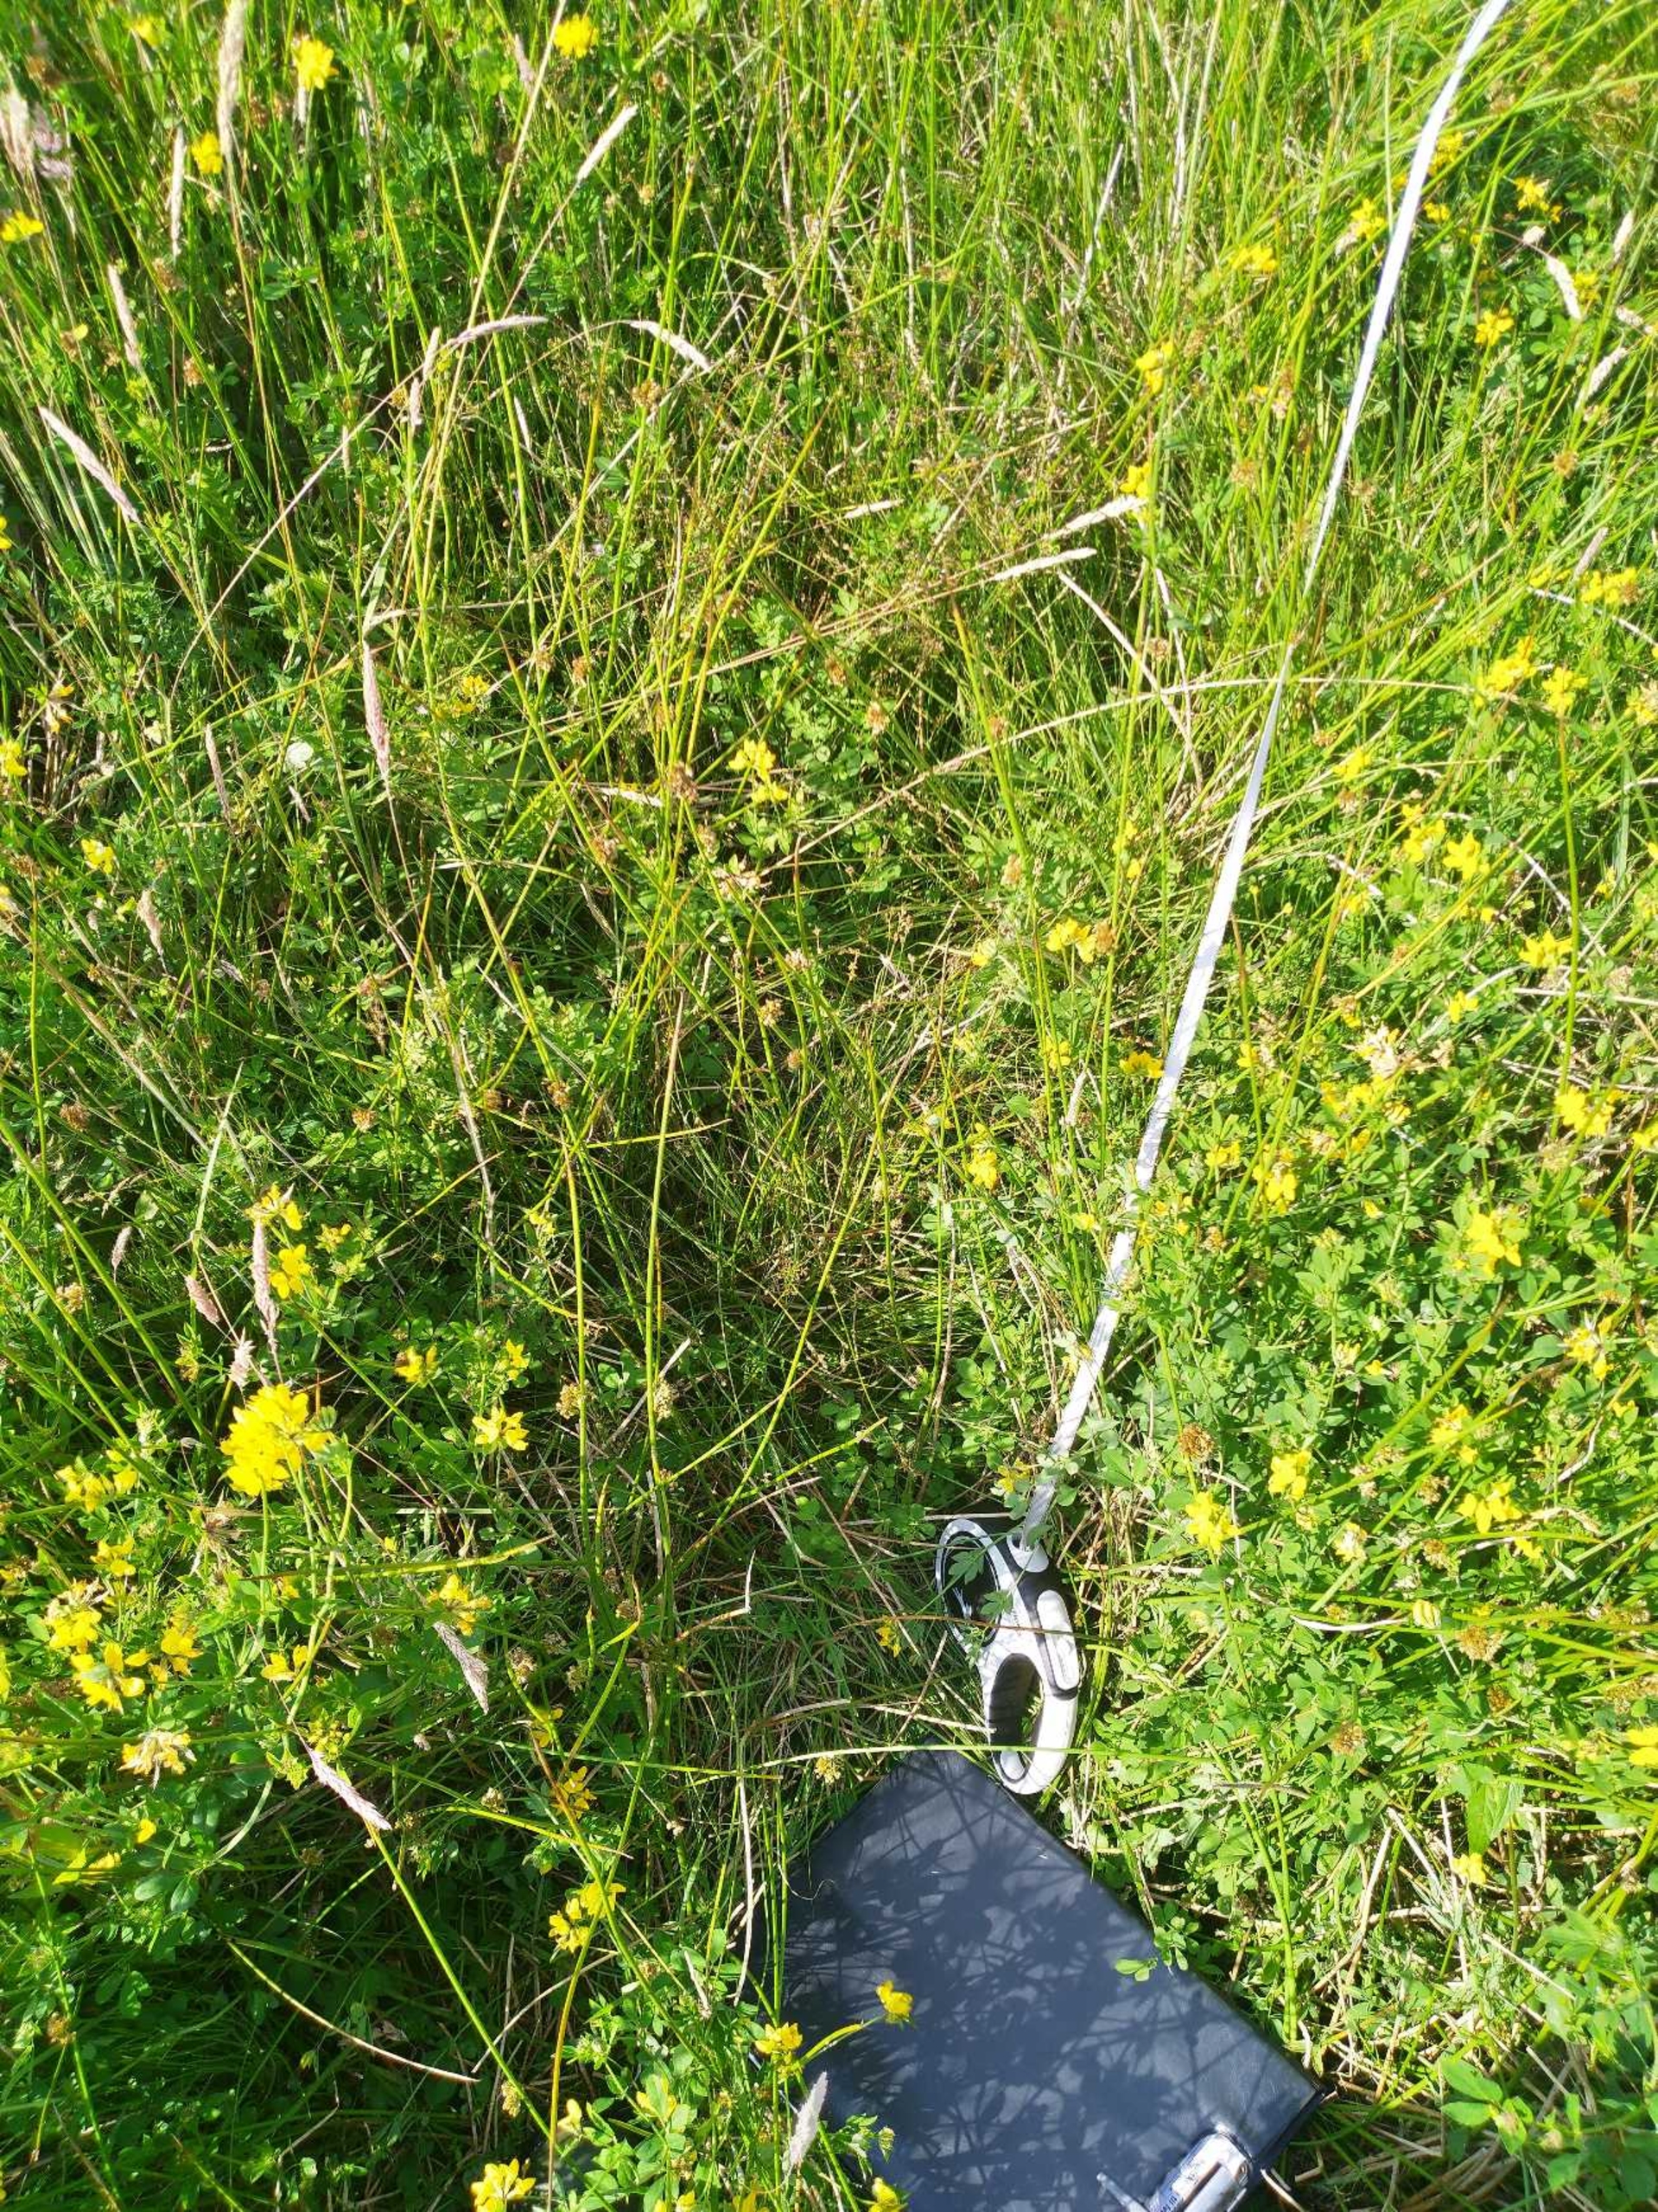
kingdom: Plantae
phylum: Tracheophyta
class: Liliopsida
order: Poales
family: Cyperaceae
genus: Carex
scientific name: Carex canescens
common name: Grå star
